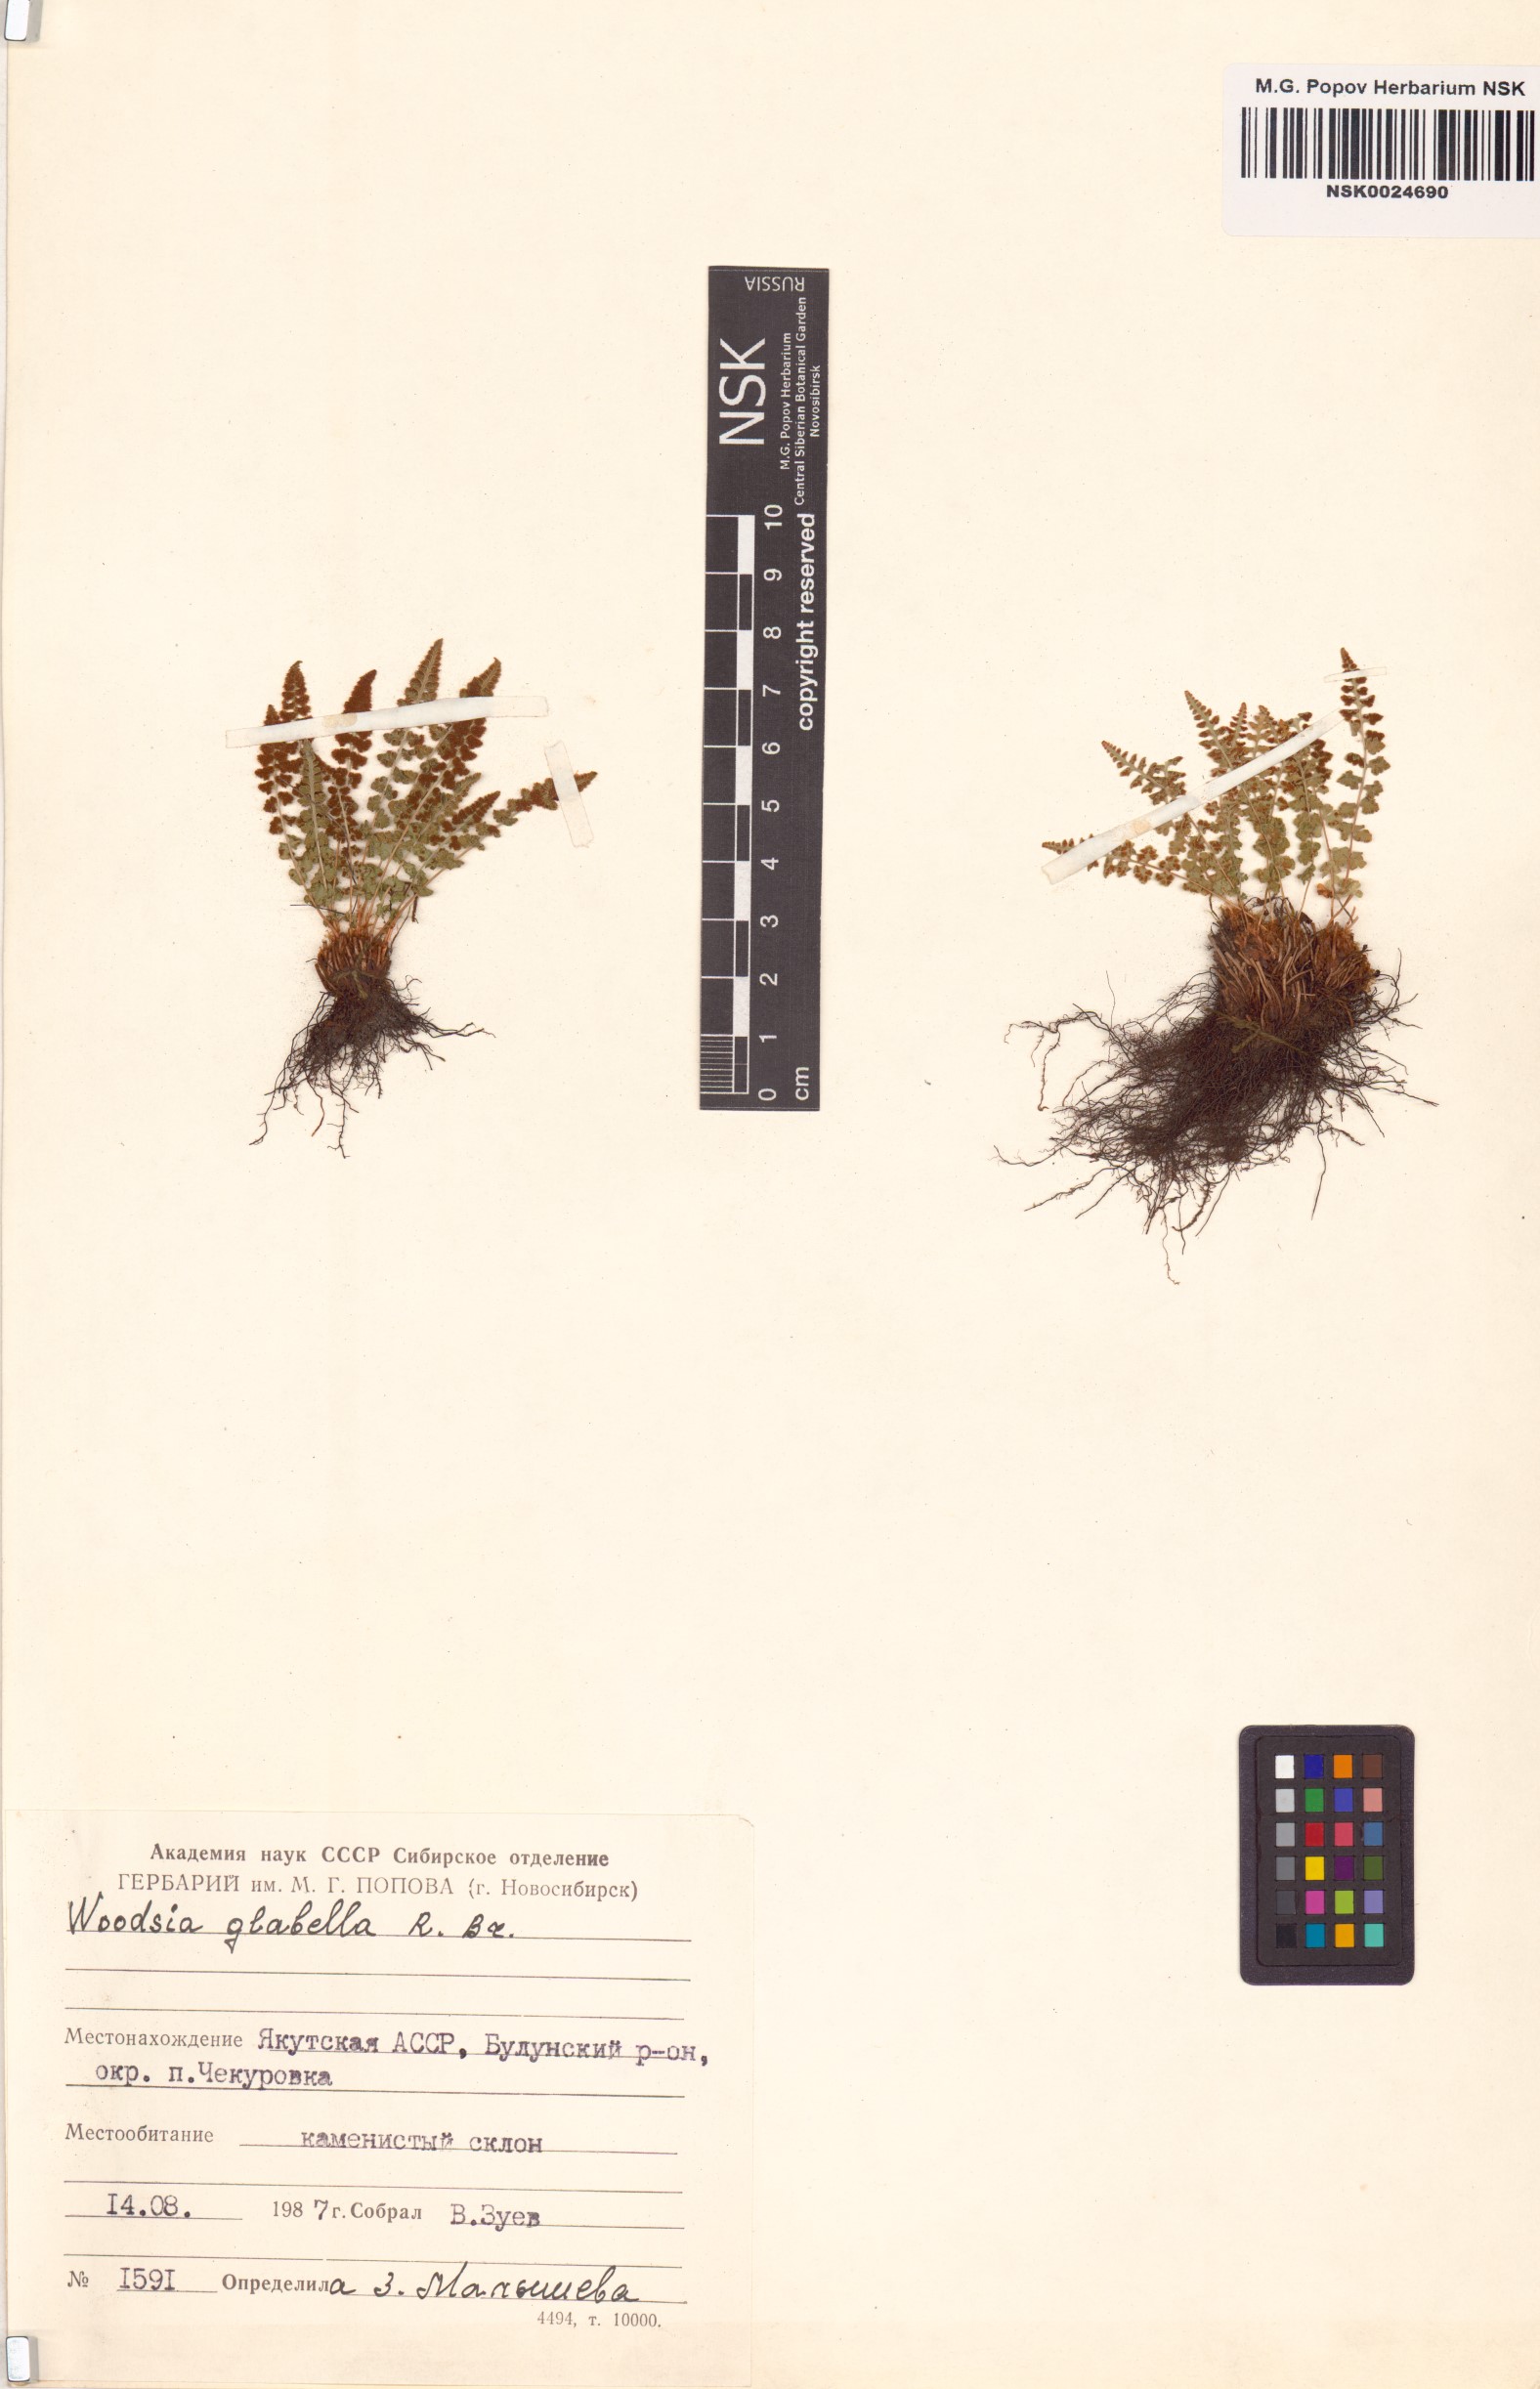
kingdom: Plantae
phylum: Tracheophyta
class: Polypodiopsida
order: Polypodiales
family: Woodsiaceae
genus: Woodsia
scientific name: Woodsia glabella
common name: Smooth woodsia
